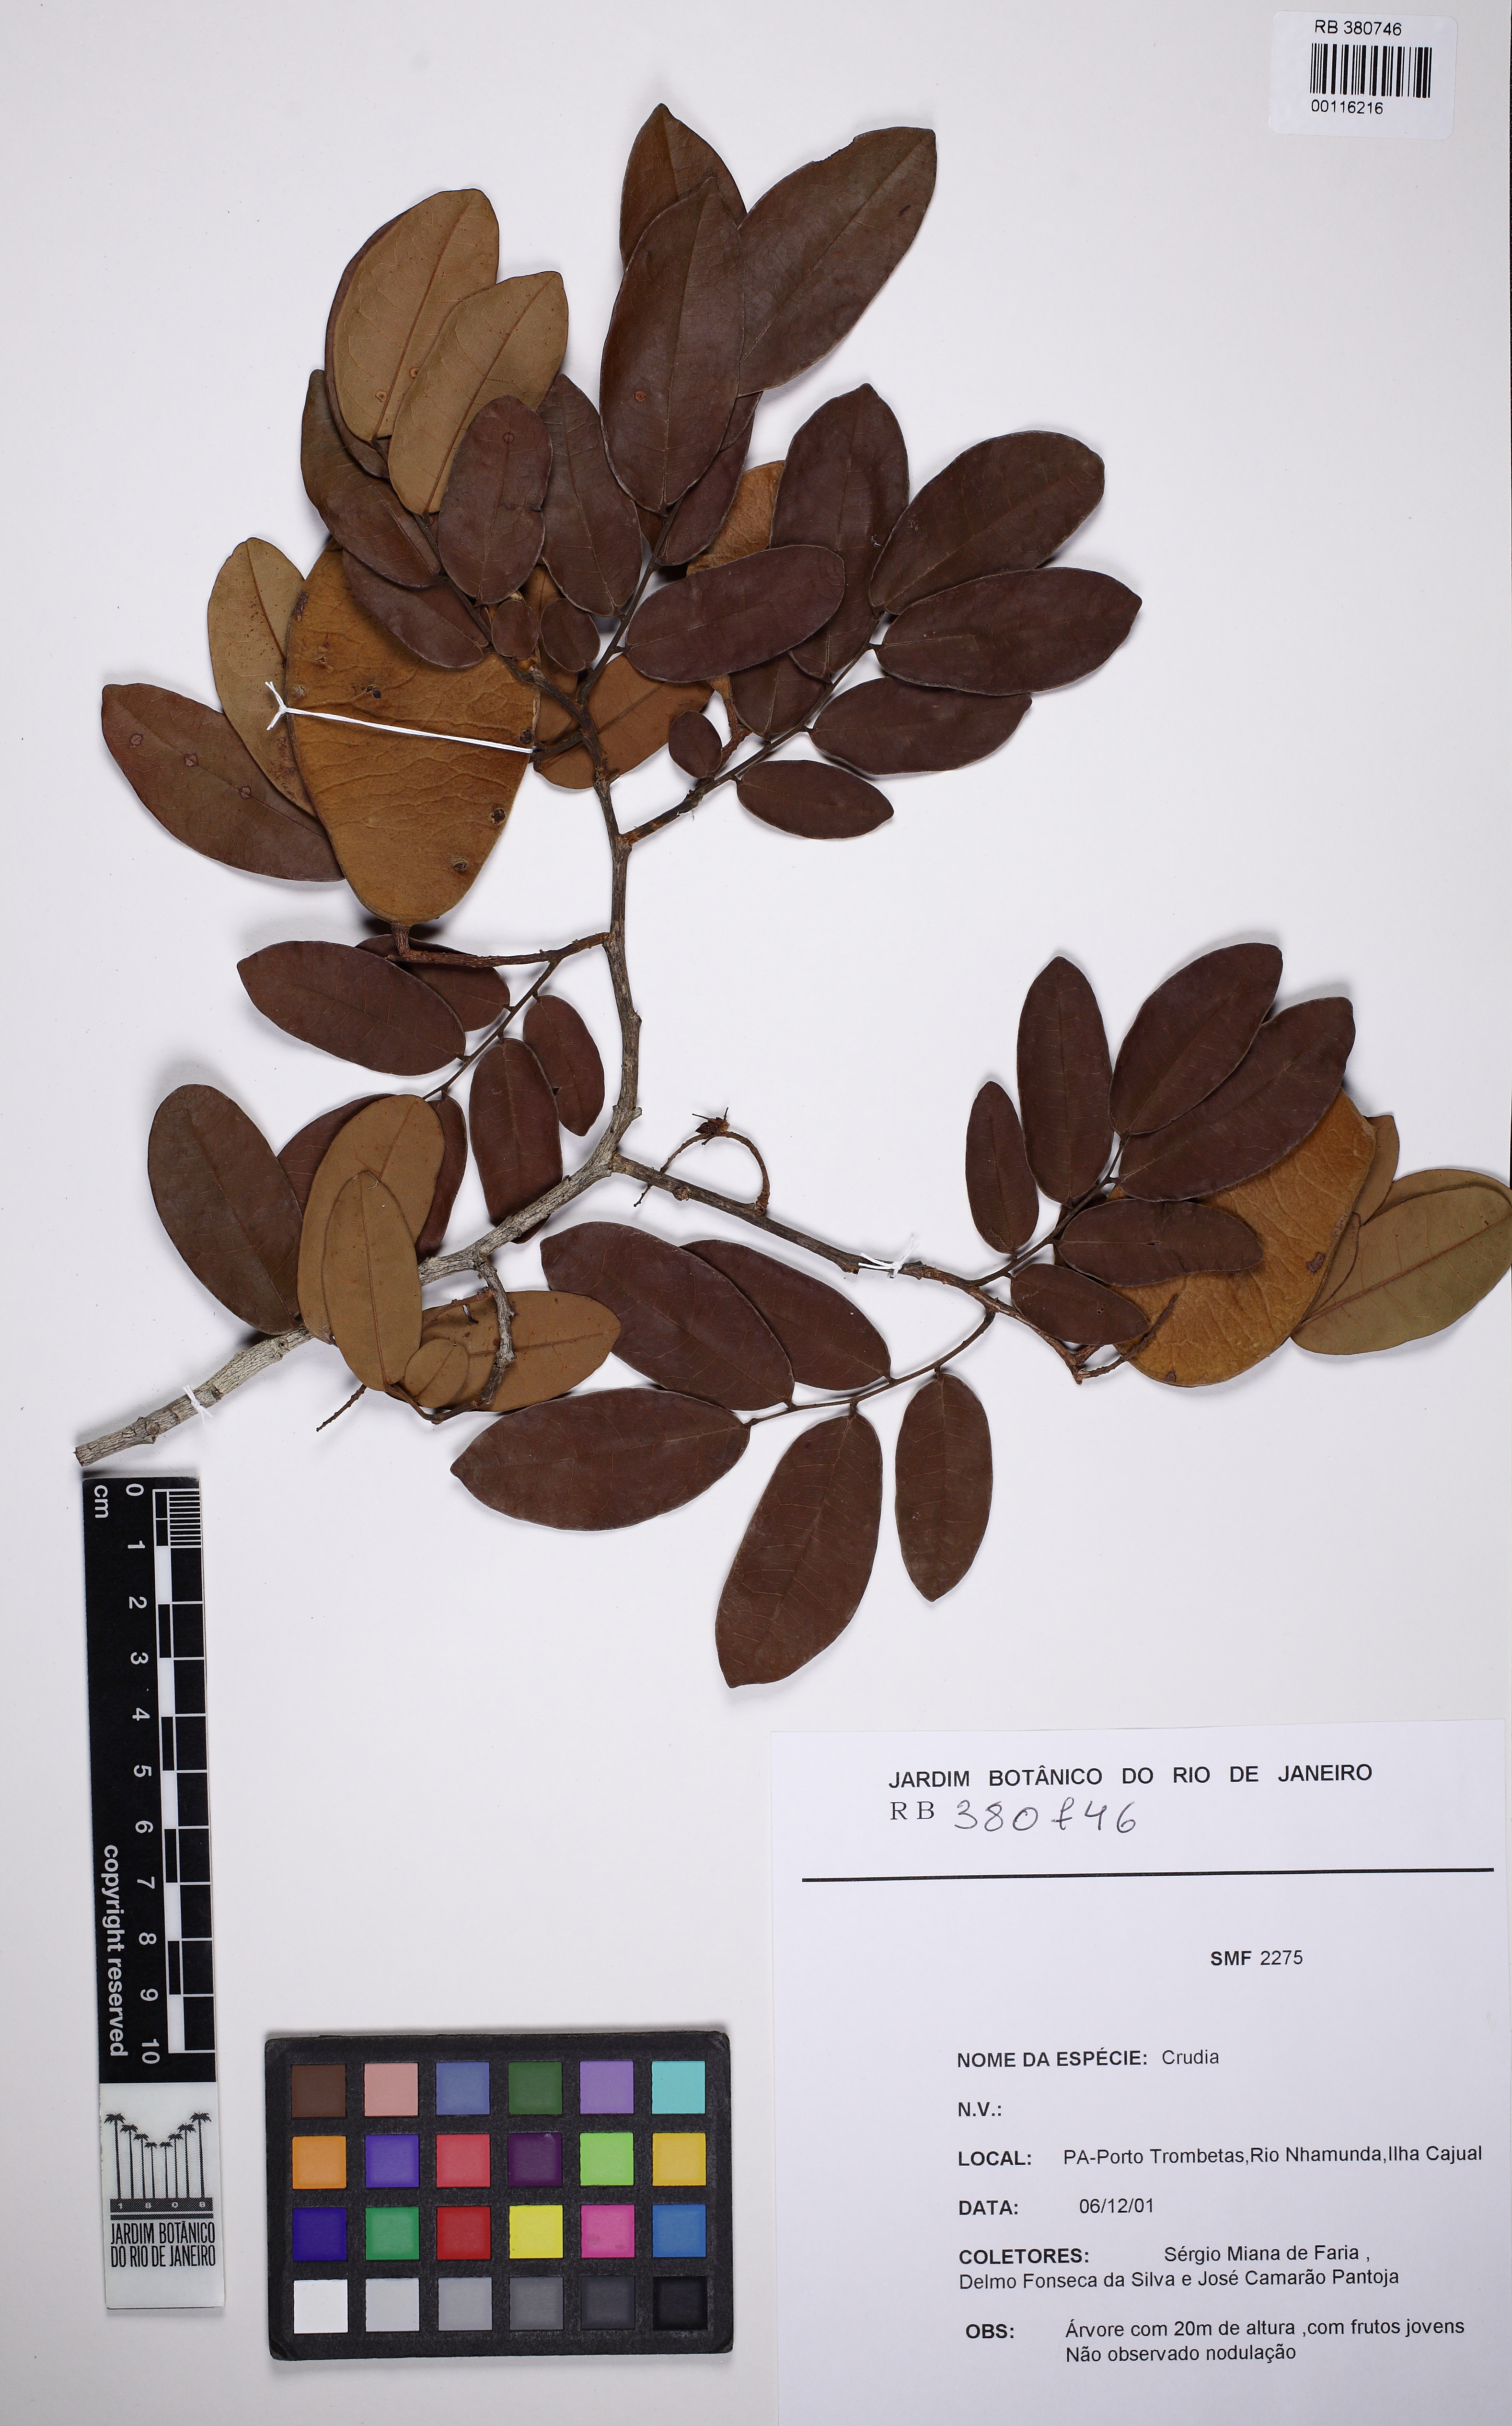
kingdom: Plantae
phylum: Tracheophyta
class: Magnoliopsida
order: Fabales
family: Fabaceae
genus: Crudia
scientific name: Crudia oblonga
